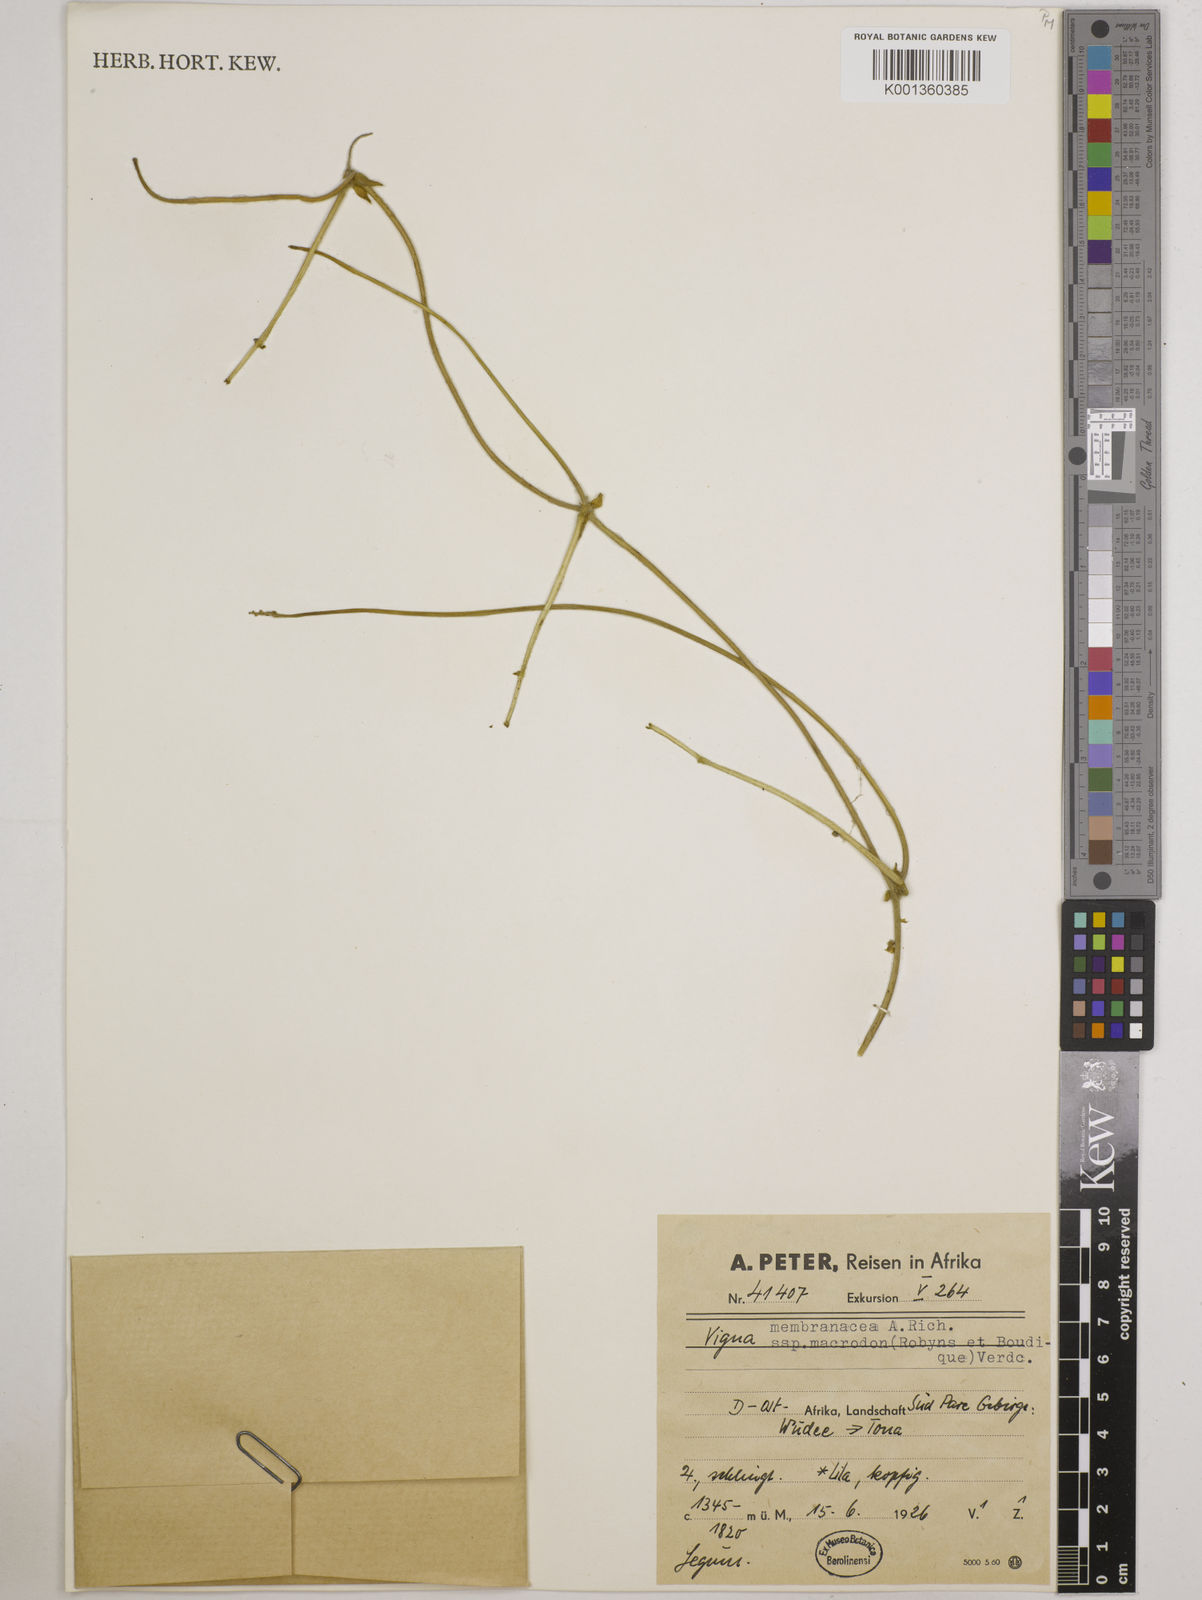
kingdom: Plantae
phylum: Tracheophyta
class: Magnoliopsida
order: Fabales
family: Fabaceae
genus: Vigna
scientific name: Vigna
